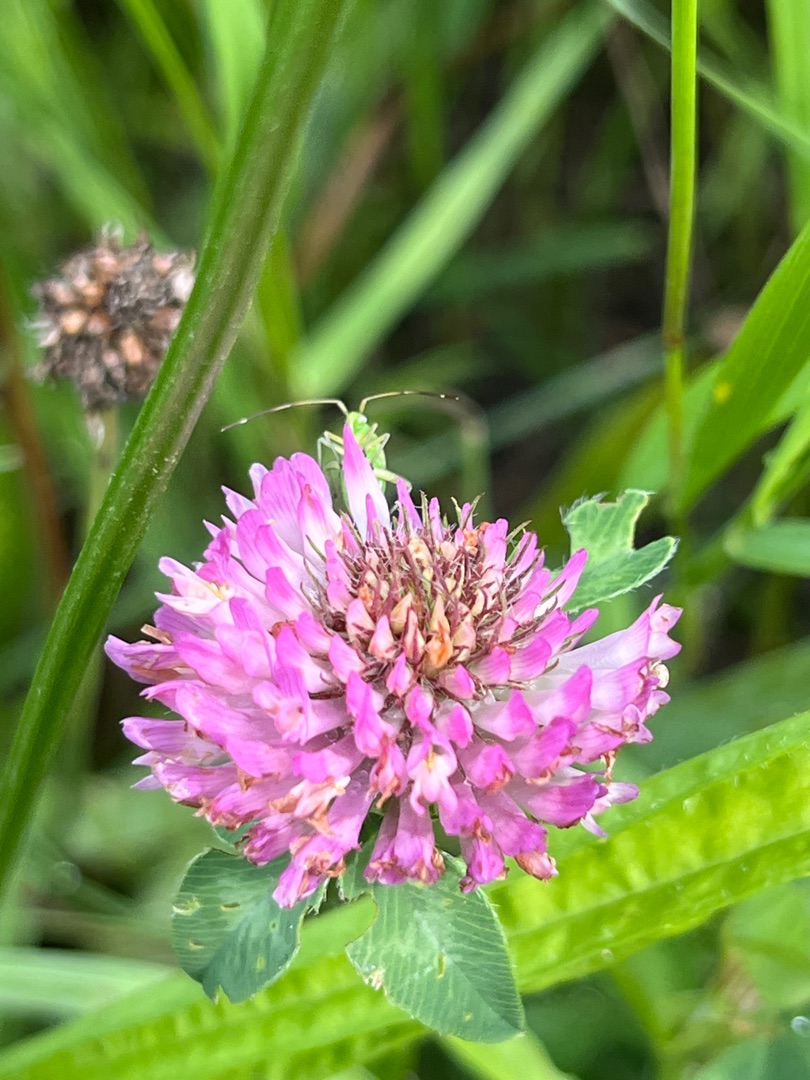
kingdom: Plantae
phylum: Tracheophyta
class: Magnoliopsida
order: Fabales
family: Fabaceae
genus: Trifolium
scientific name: Trifolium pratense
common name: Rød-kløver
